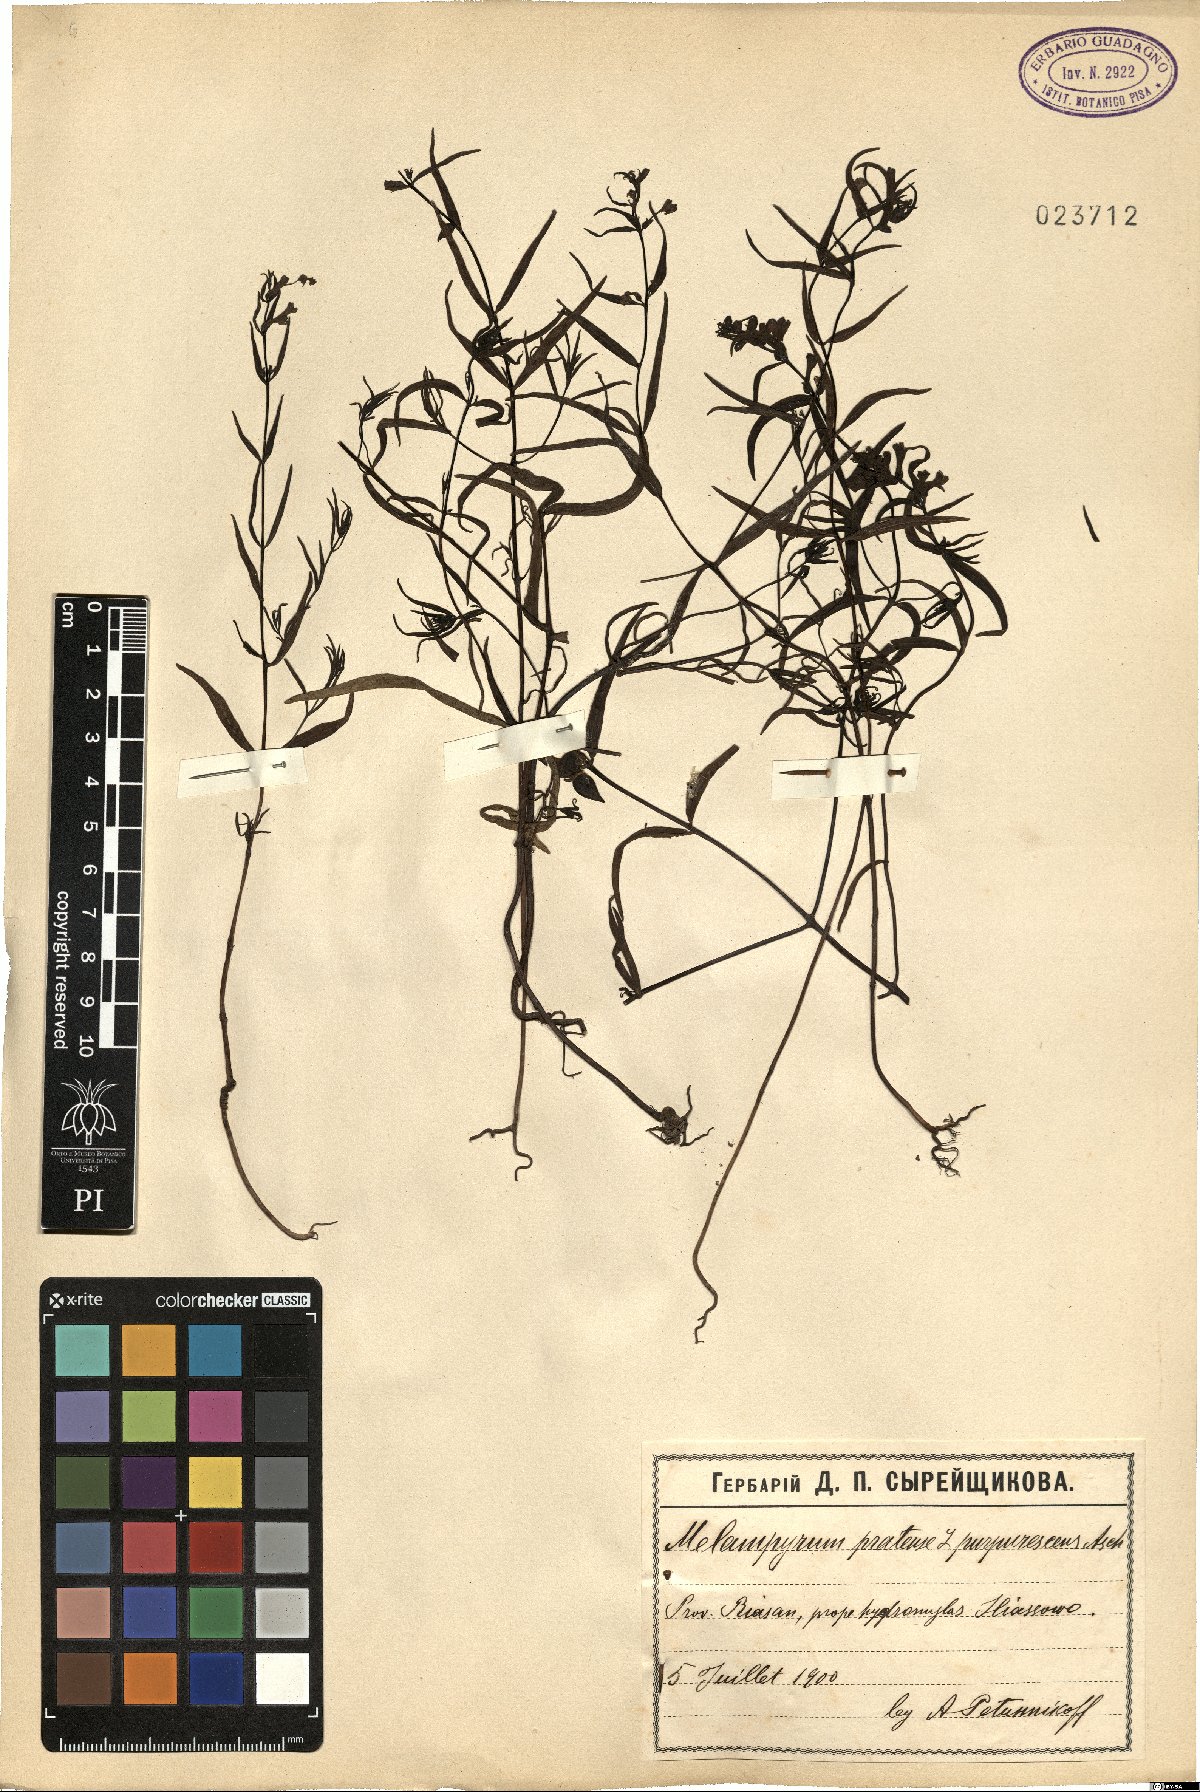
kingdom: Plantae
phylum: Tracheophyta
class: Magnoliopsida
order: Lamiales
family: Orobanchaceae
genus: Melampyrum
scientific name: Melampyrum pratense
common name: Common cow-wheat
